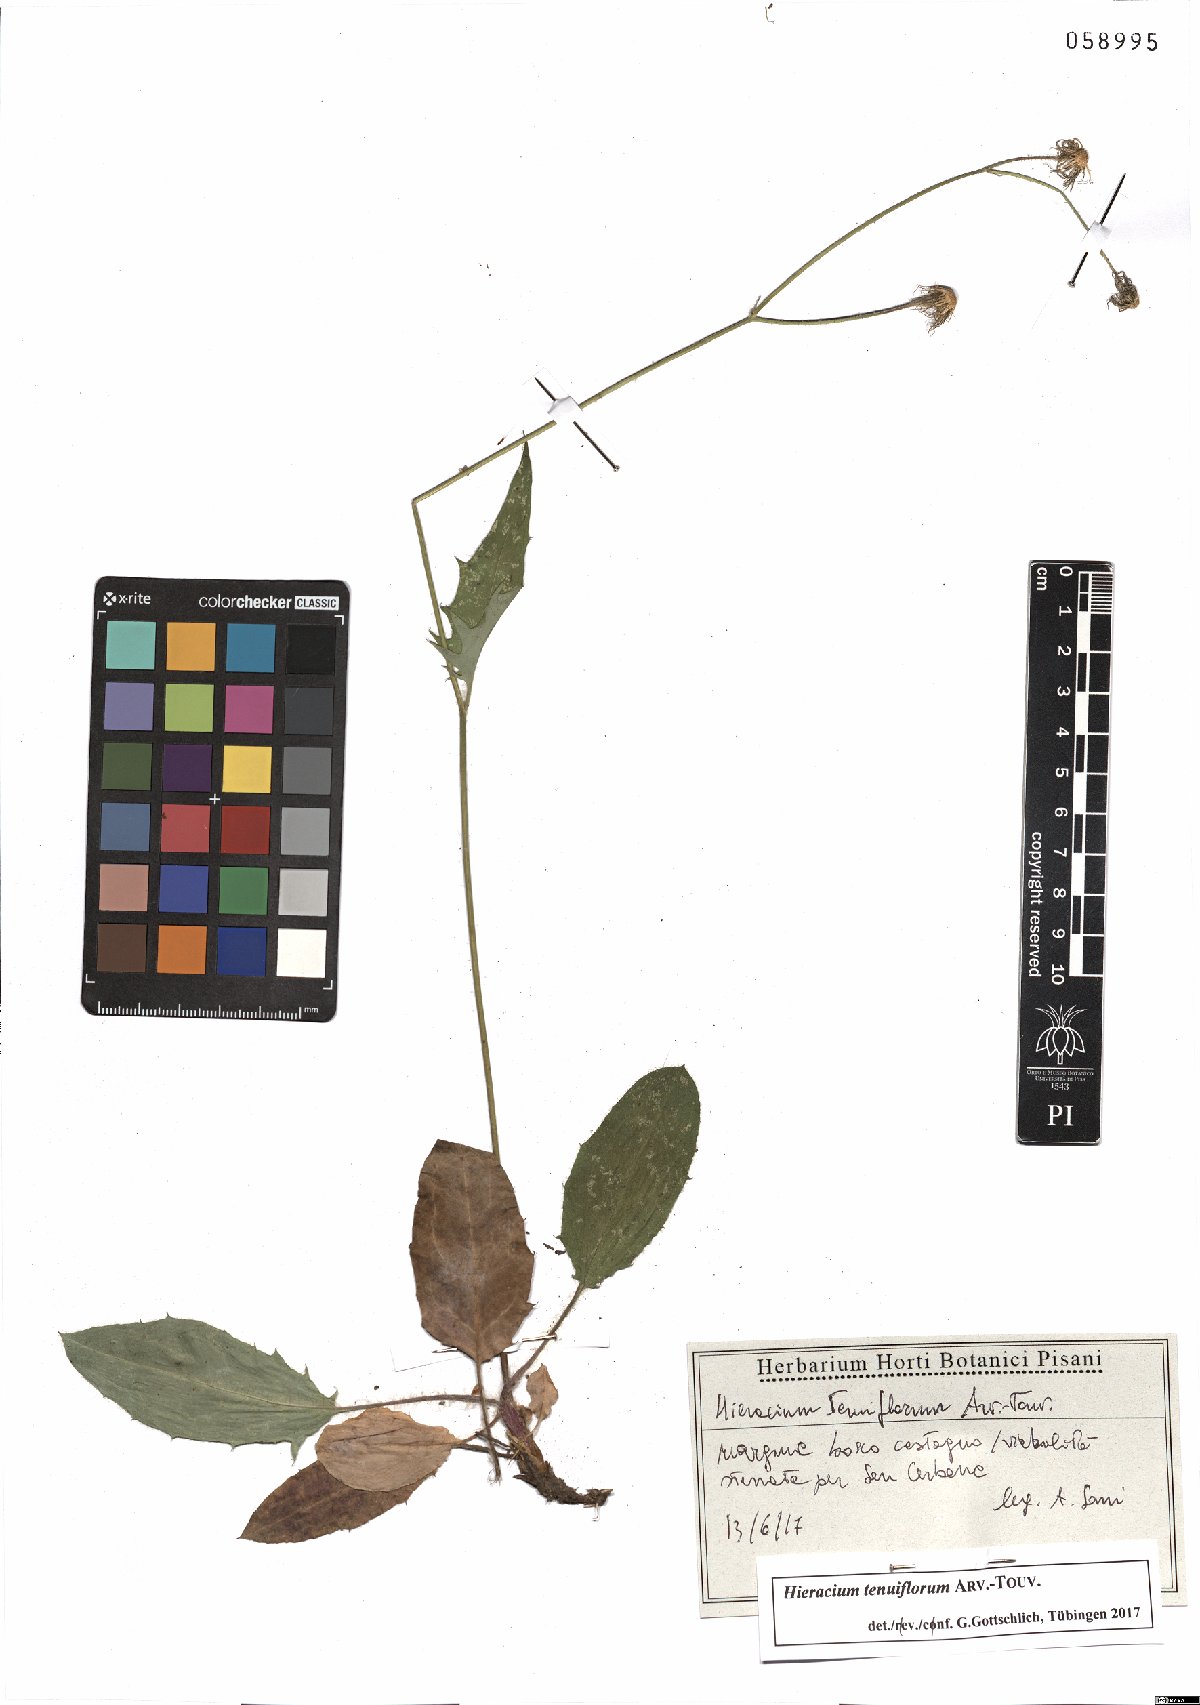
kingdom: Plantae
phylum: Tracheophyta
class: Magnoliopsida
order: Asterales
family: Asteraceae
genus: Hieracium
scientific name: Hieracium tenuiflorum
